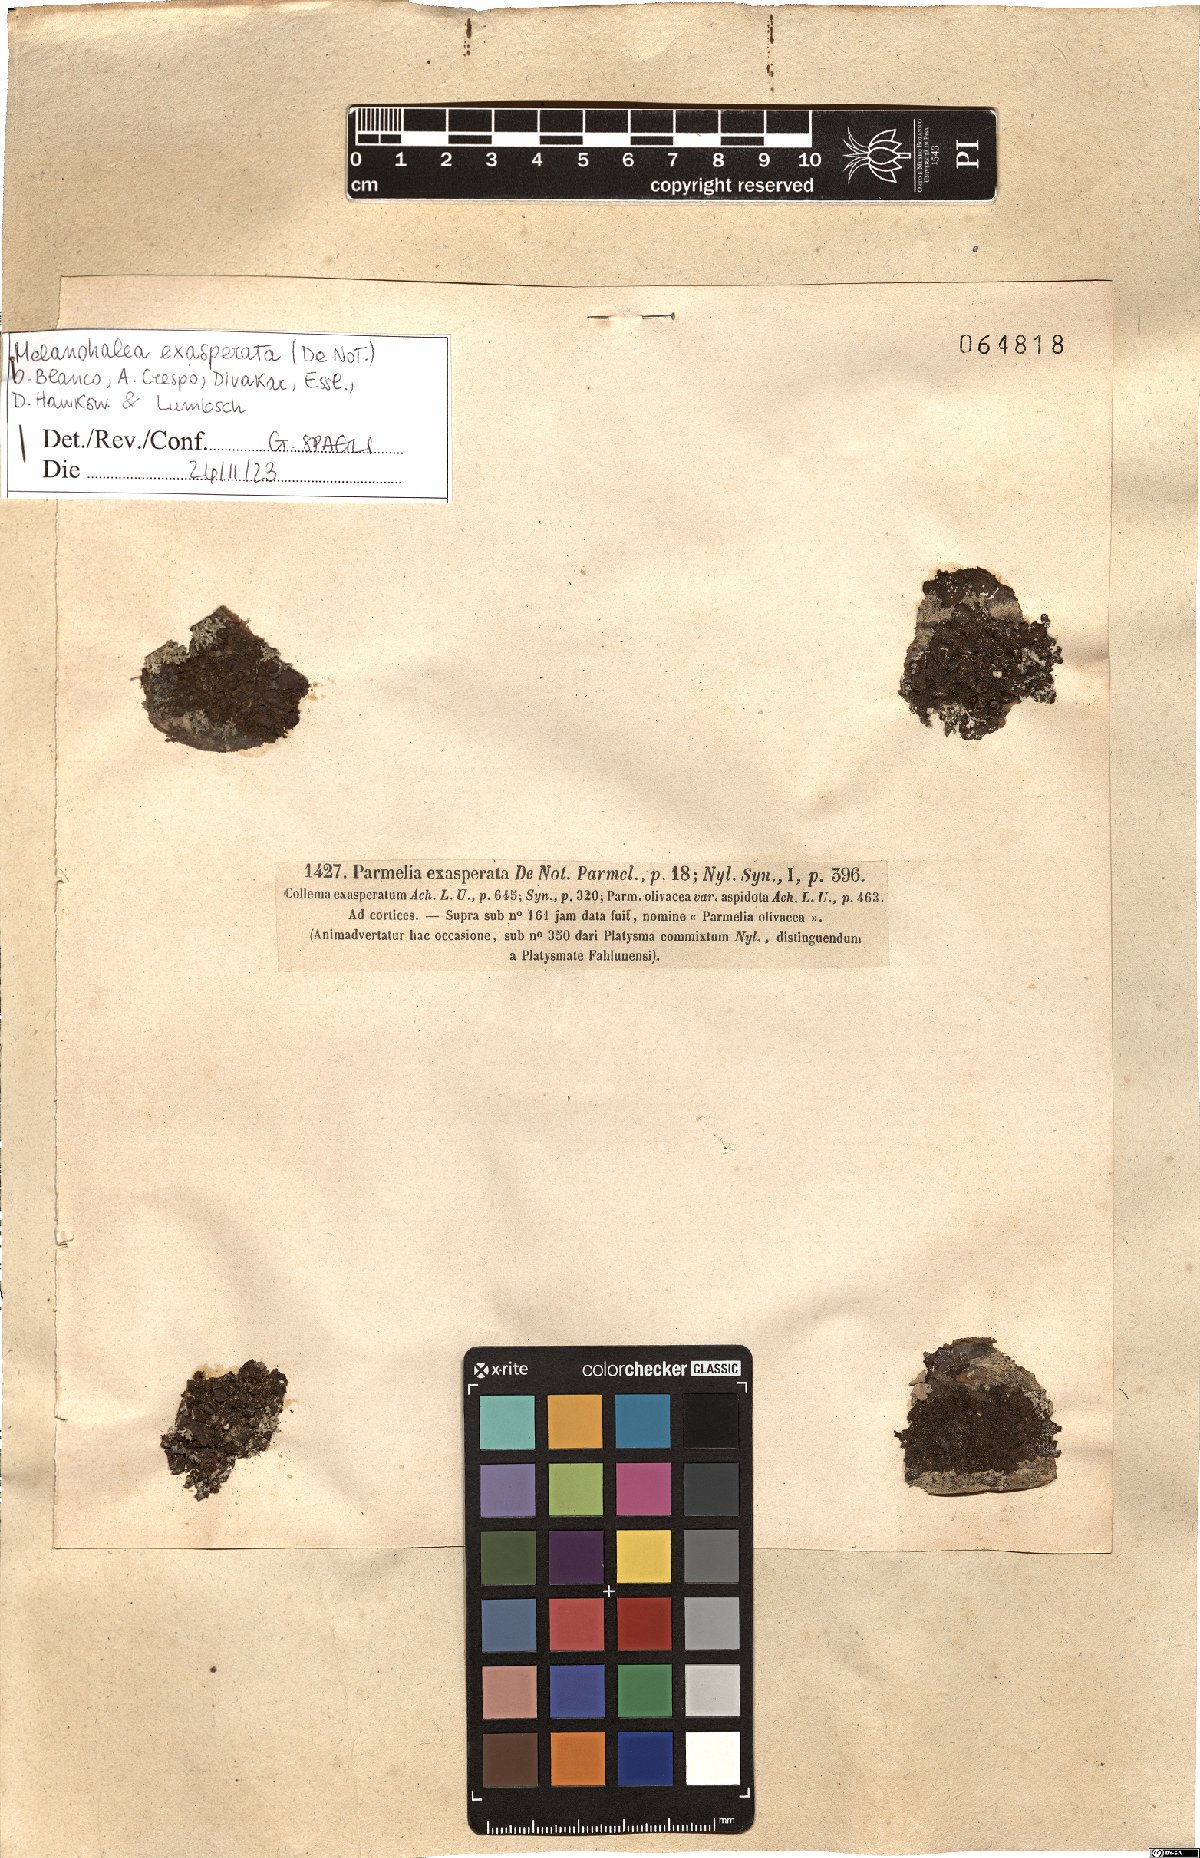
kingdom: Fungi
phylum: Ascomycota
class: Lecanoromycetes
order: Lecanorales
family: Parmeliaceae
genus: Melanohalea
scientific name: Melanohalea exasperata
